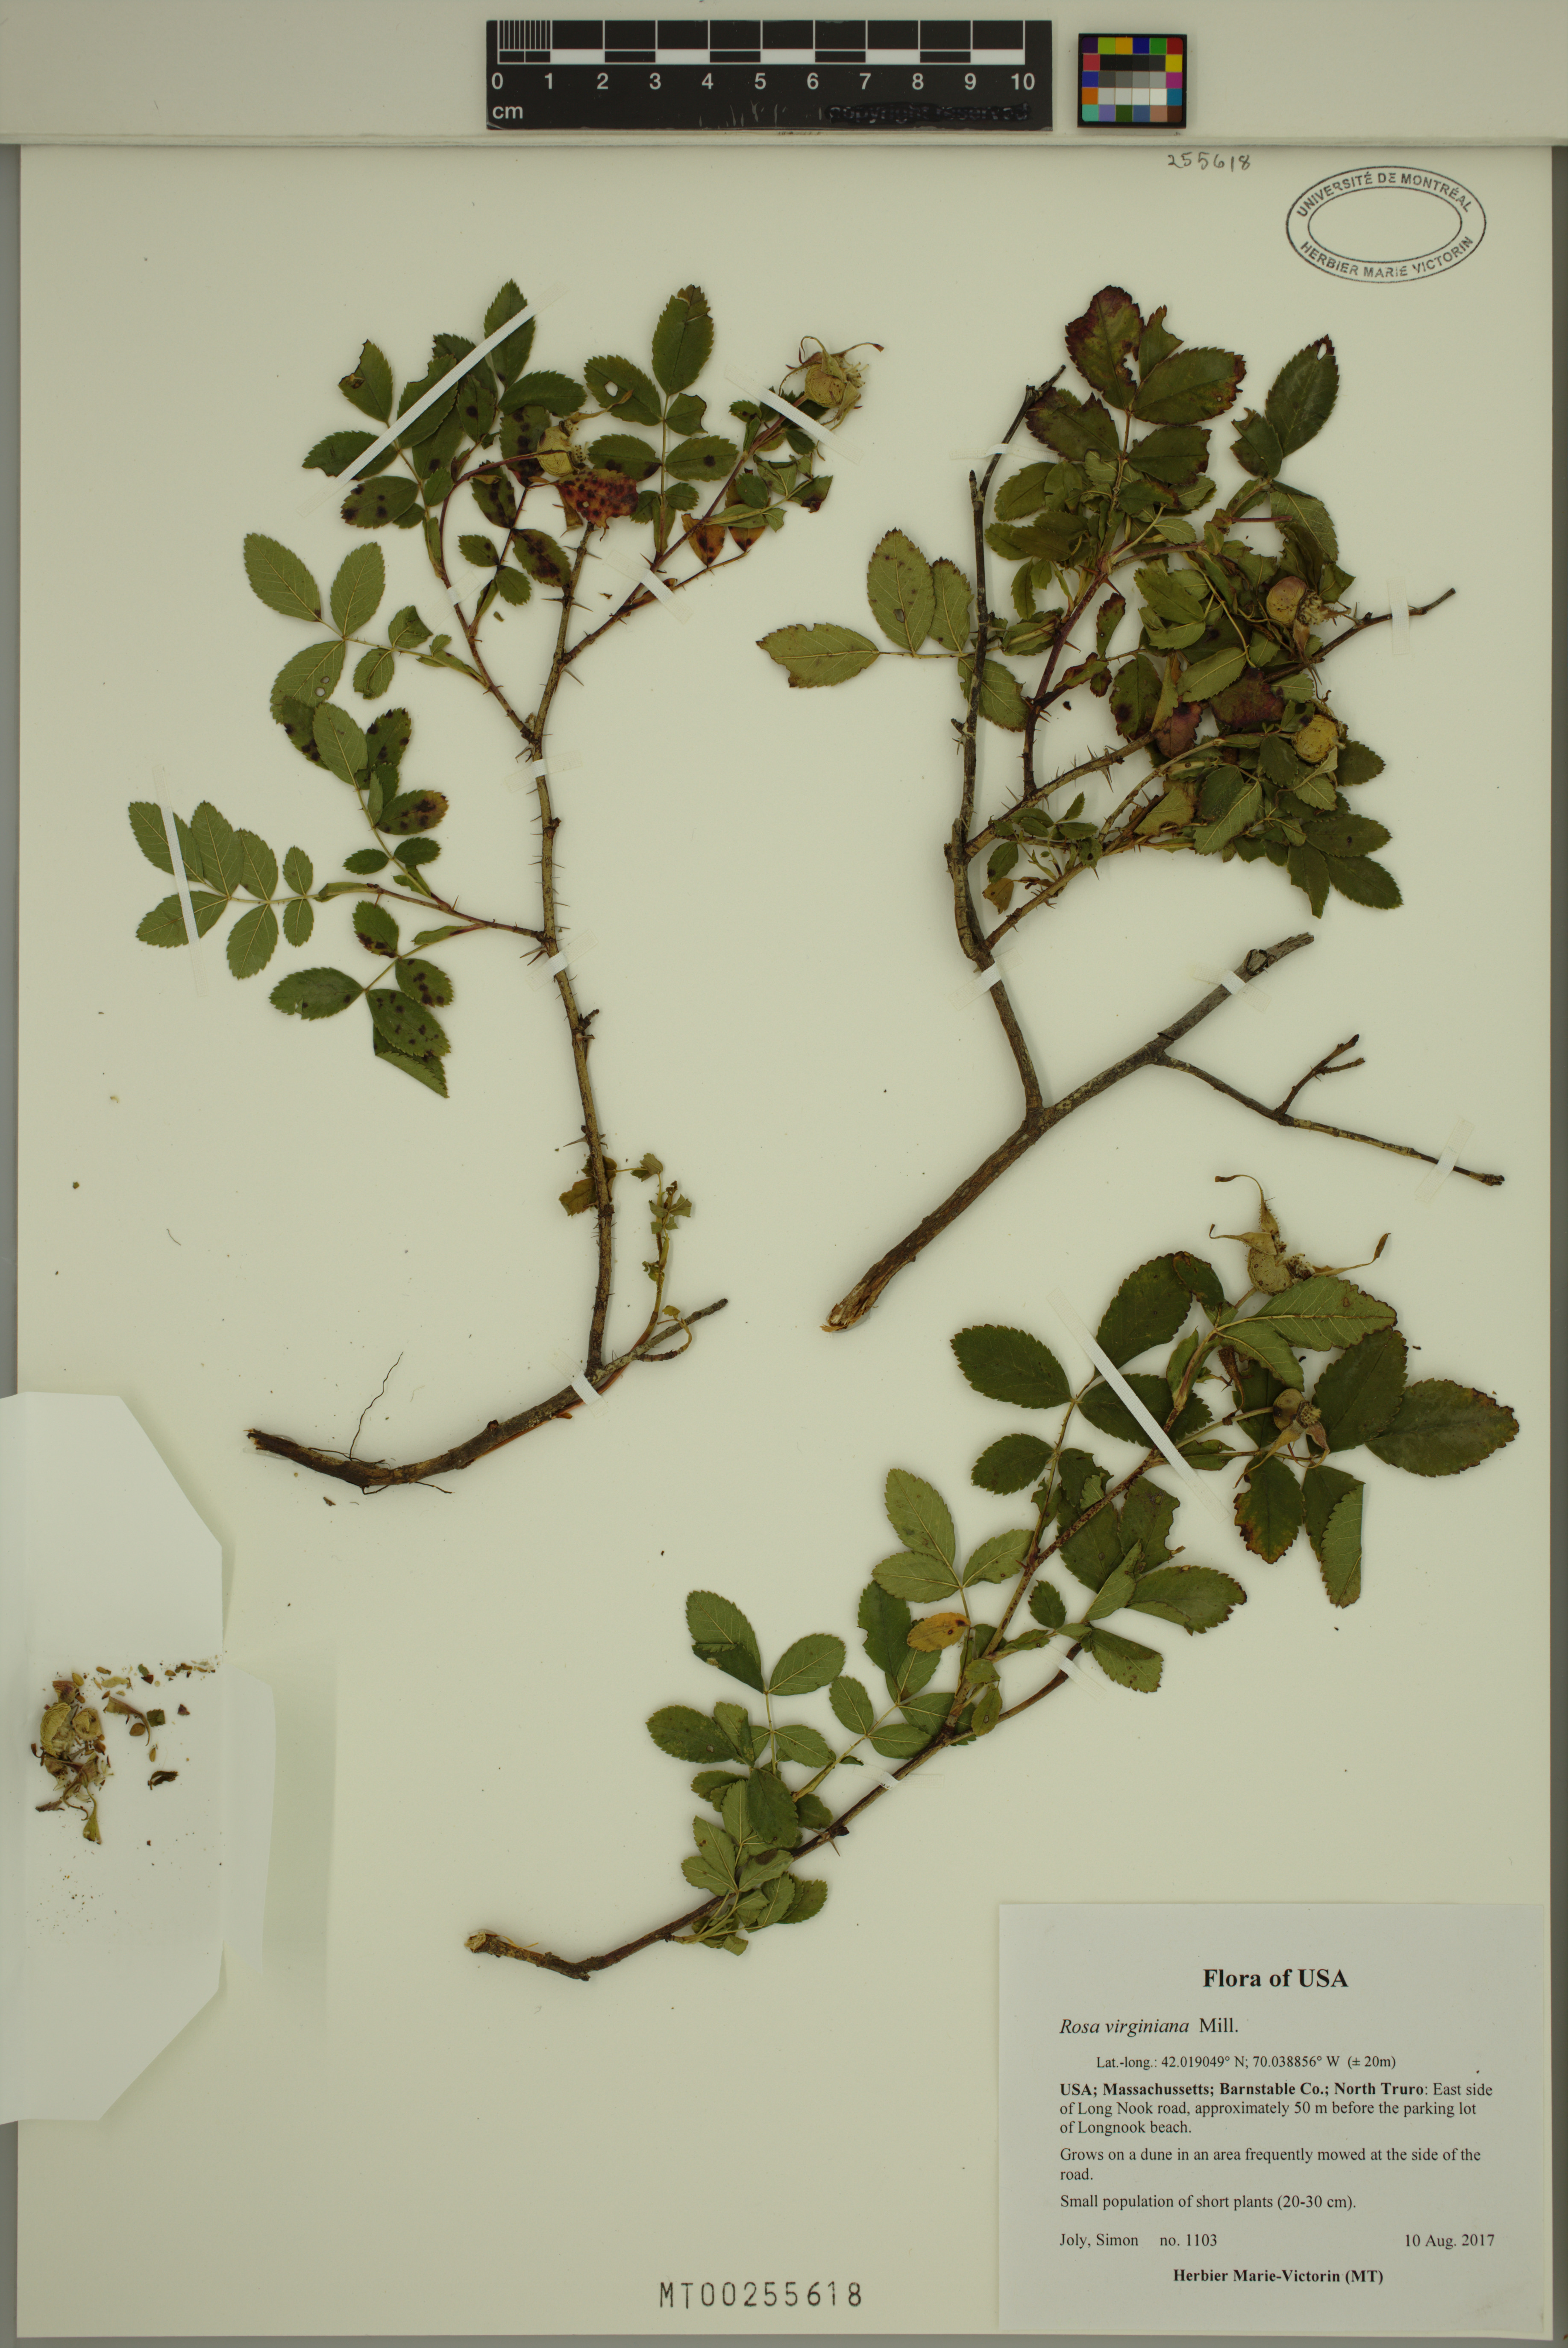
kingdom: Plantae
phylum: Tracheophyta
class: Magnoliopsida
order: Rosales
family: Rosaceae
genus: Rosa
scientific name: Rosa carolina
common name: Pasture rose
